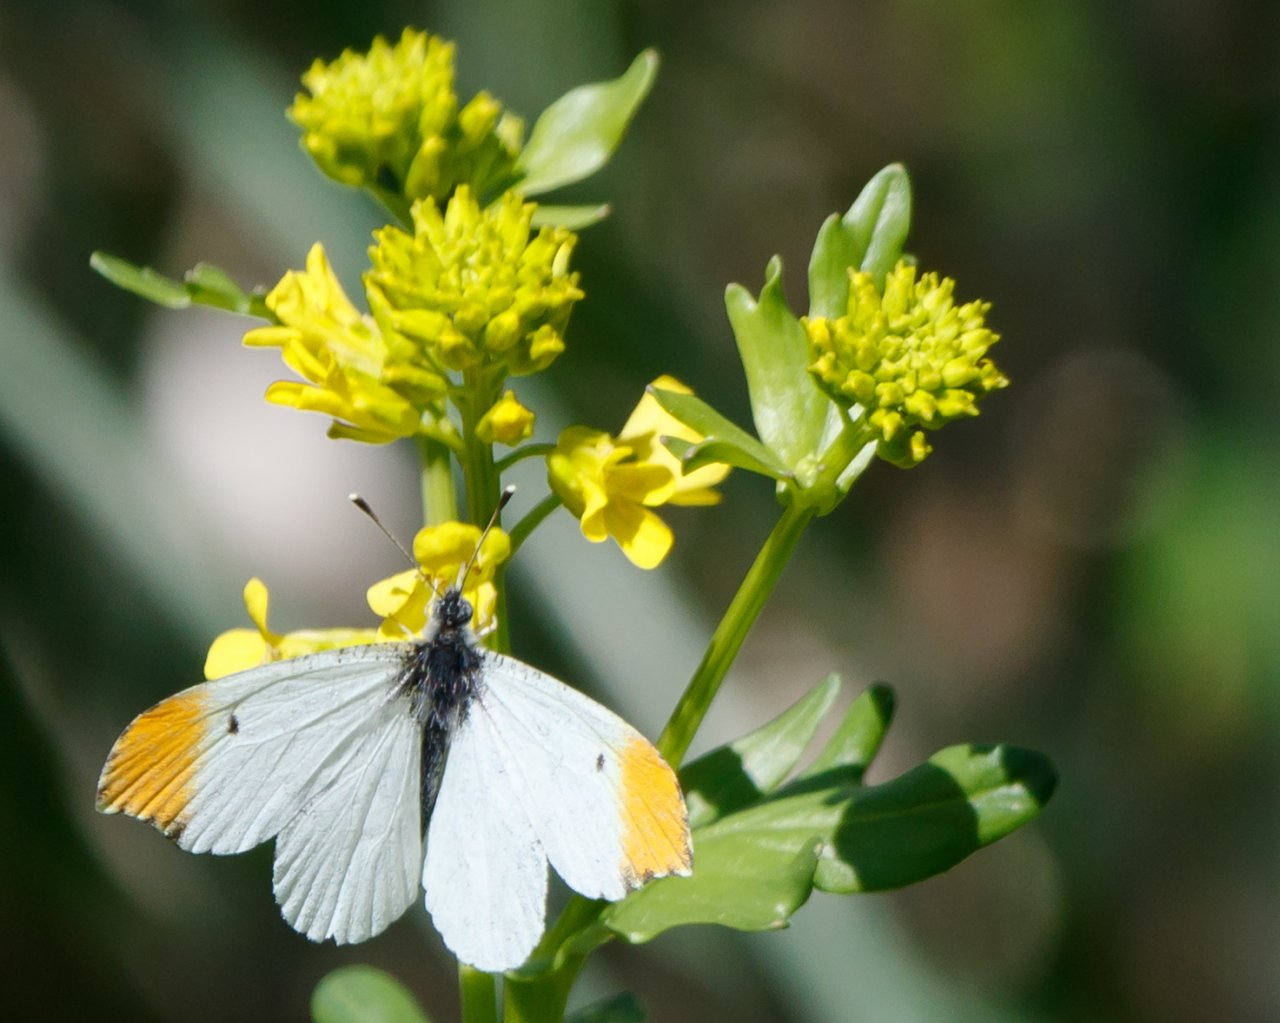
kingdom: Animalia
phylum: Arthropoda
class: Insecta
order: Lepidoptera
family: Pieridae
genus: Anthocharis
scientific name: Anthocharis midea
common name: Falcate Orangetip
